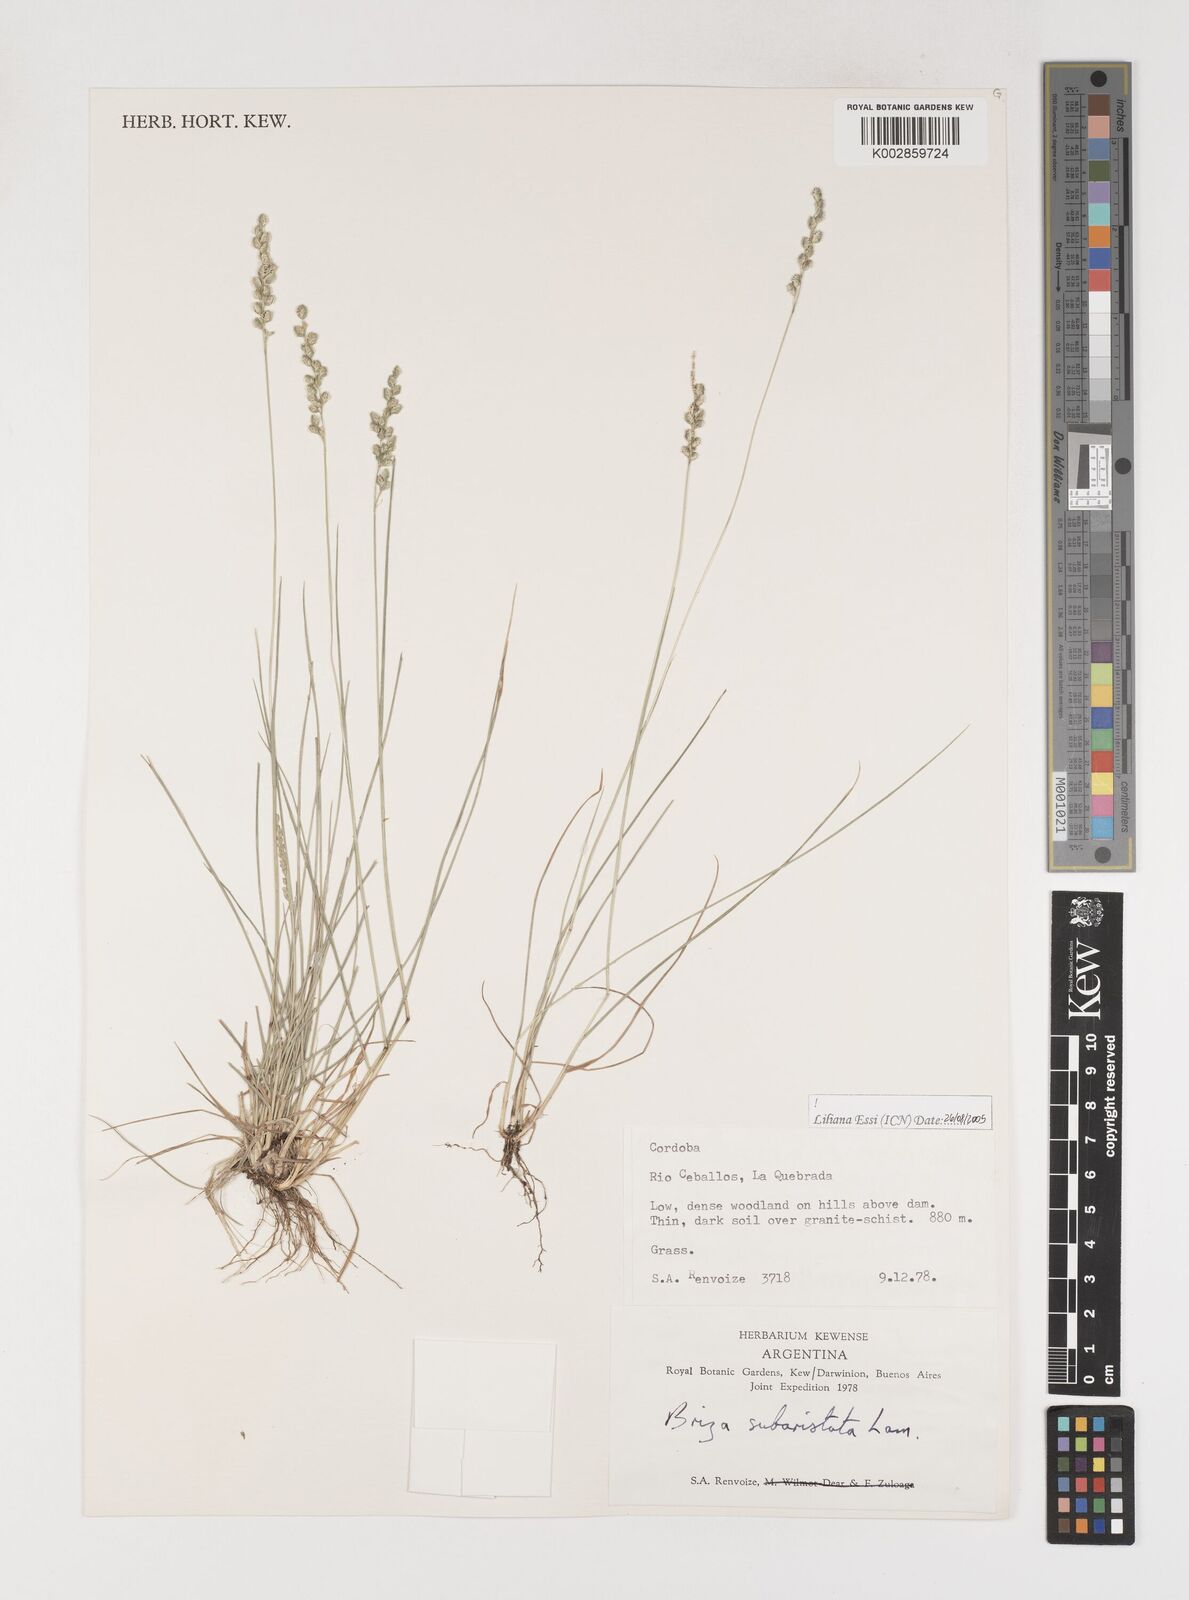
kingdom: Plantae
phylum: Tracheophyta
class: Liliopsida
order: Poales
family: Poaceae
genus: Chascolytrum
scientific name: Chascolytrum subaristatum
